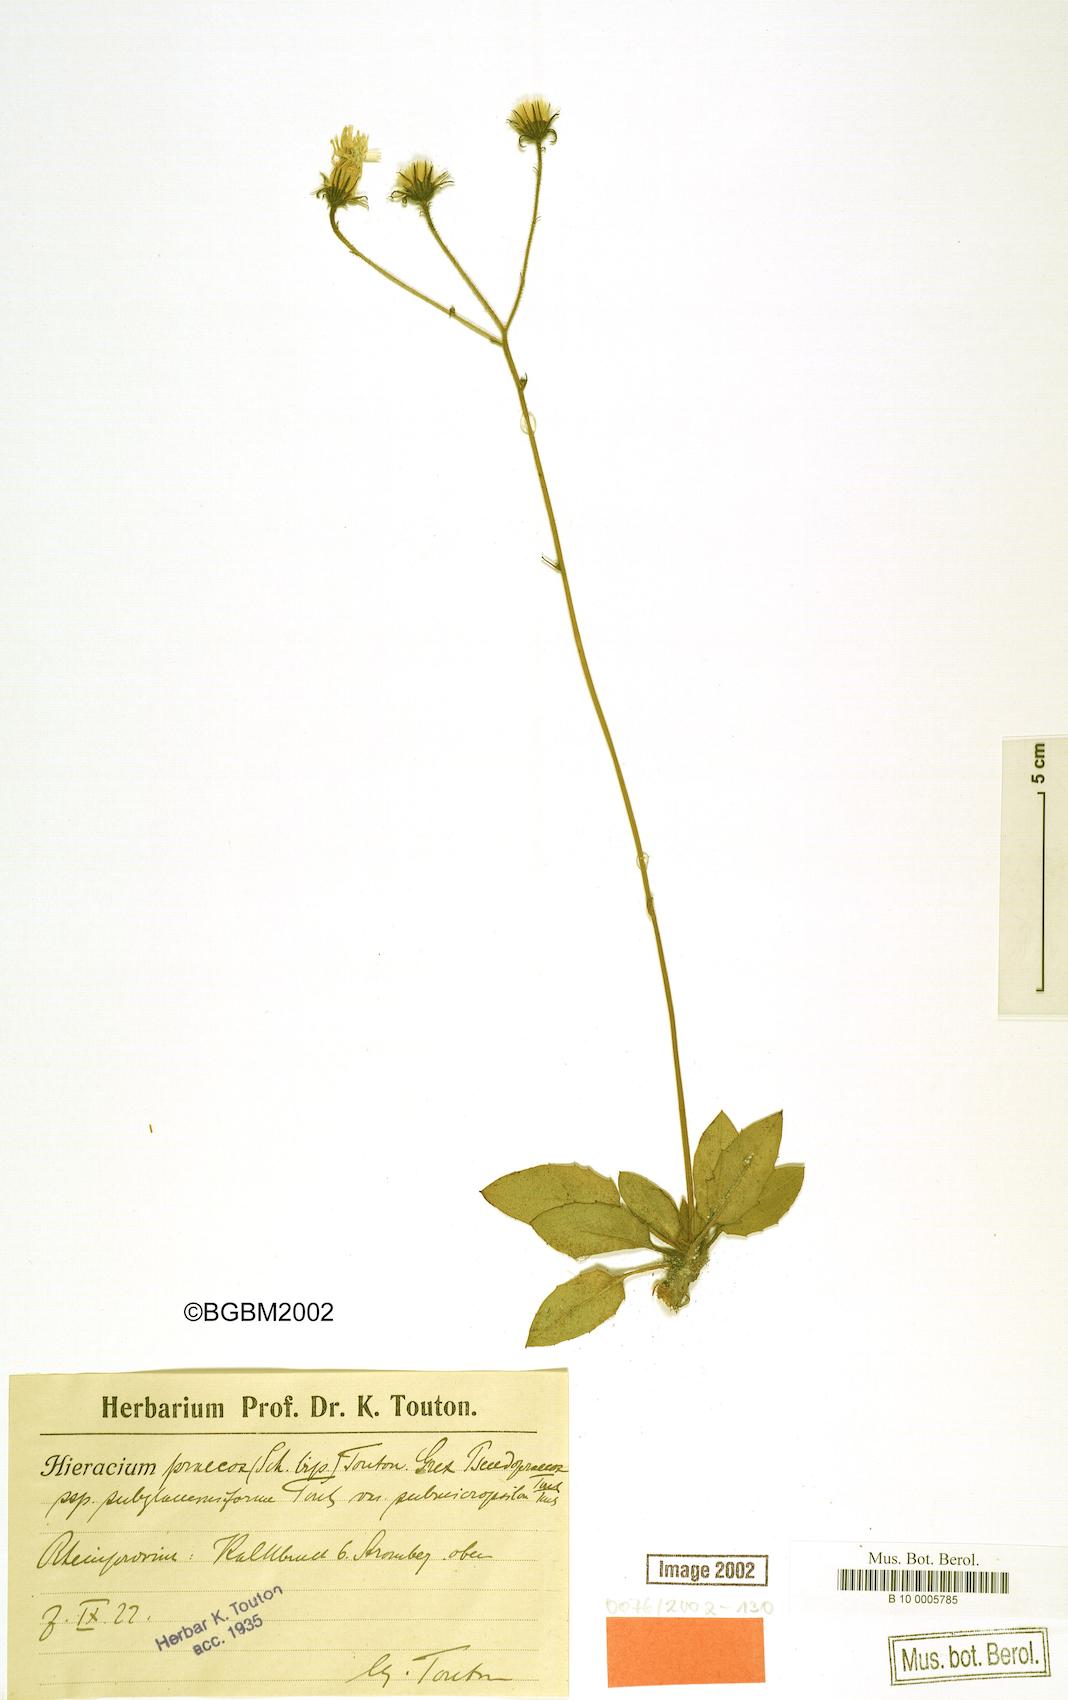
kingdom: Plantae
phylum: Tracheophyta
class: Magnoliopsida
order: Asterales
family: Asteraceae
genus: Hieracium
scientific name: Hieracium praecox
